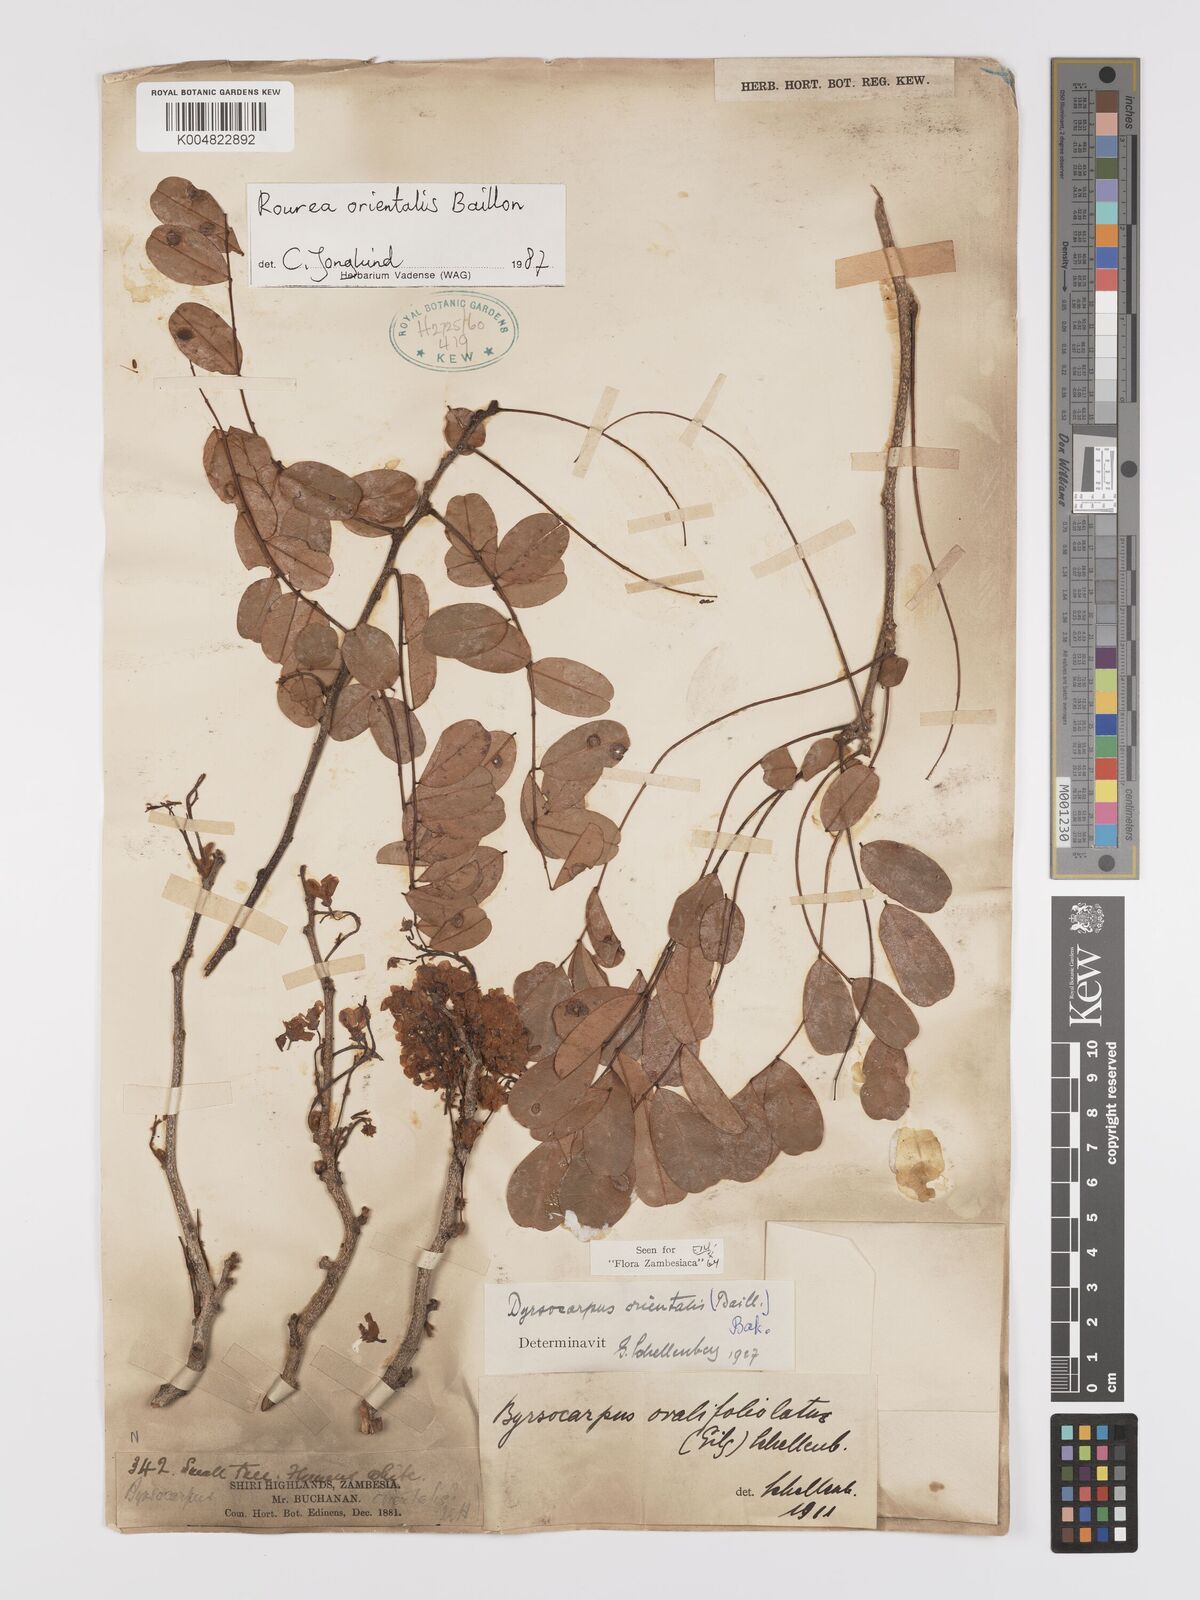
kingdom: Plantae
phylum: Tracheophyta
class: Magnoliopsida
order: Oxalidales
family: Connaraceae
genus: Rourea
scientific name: Rourea orientalis
